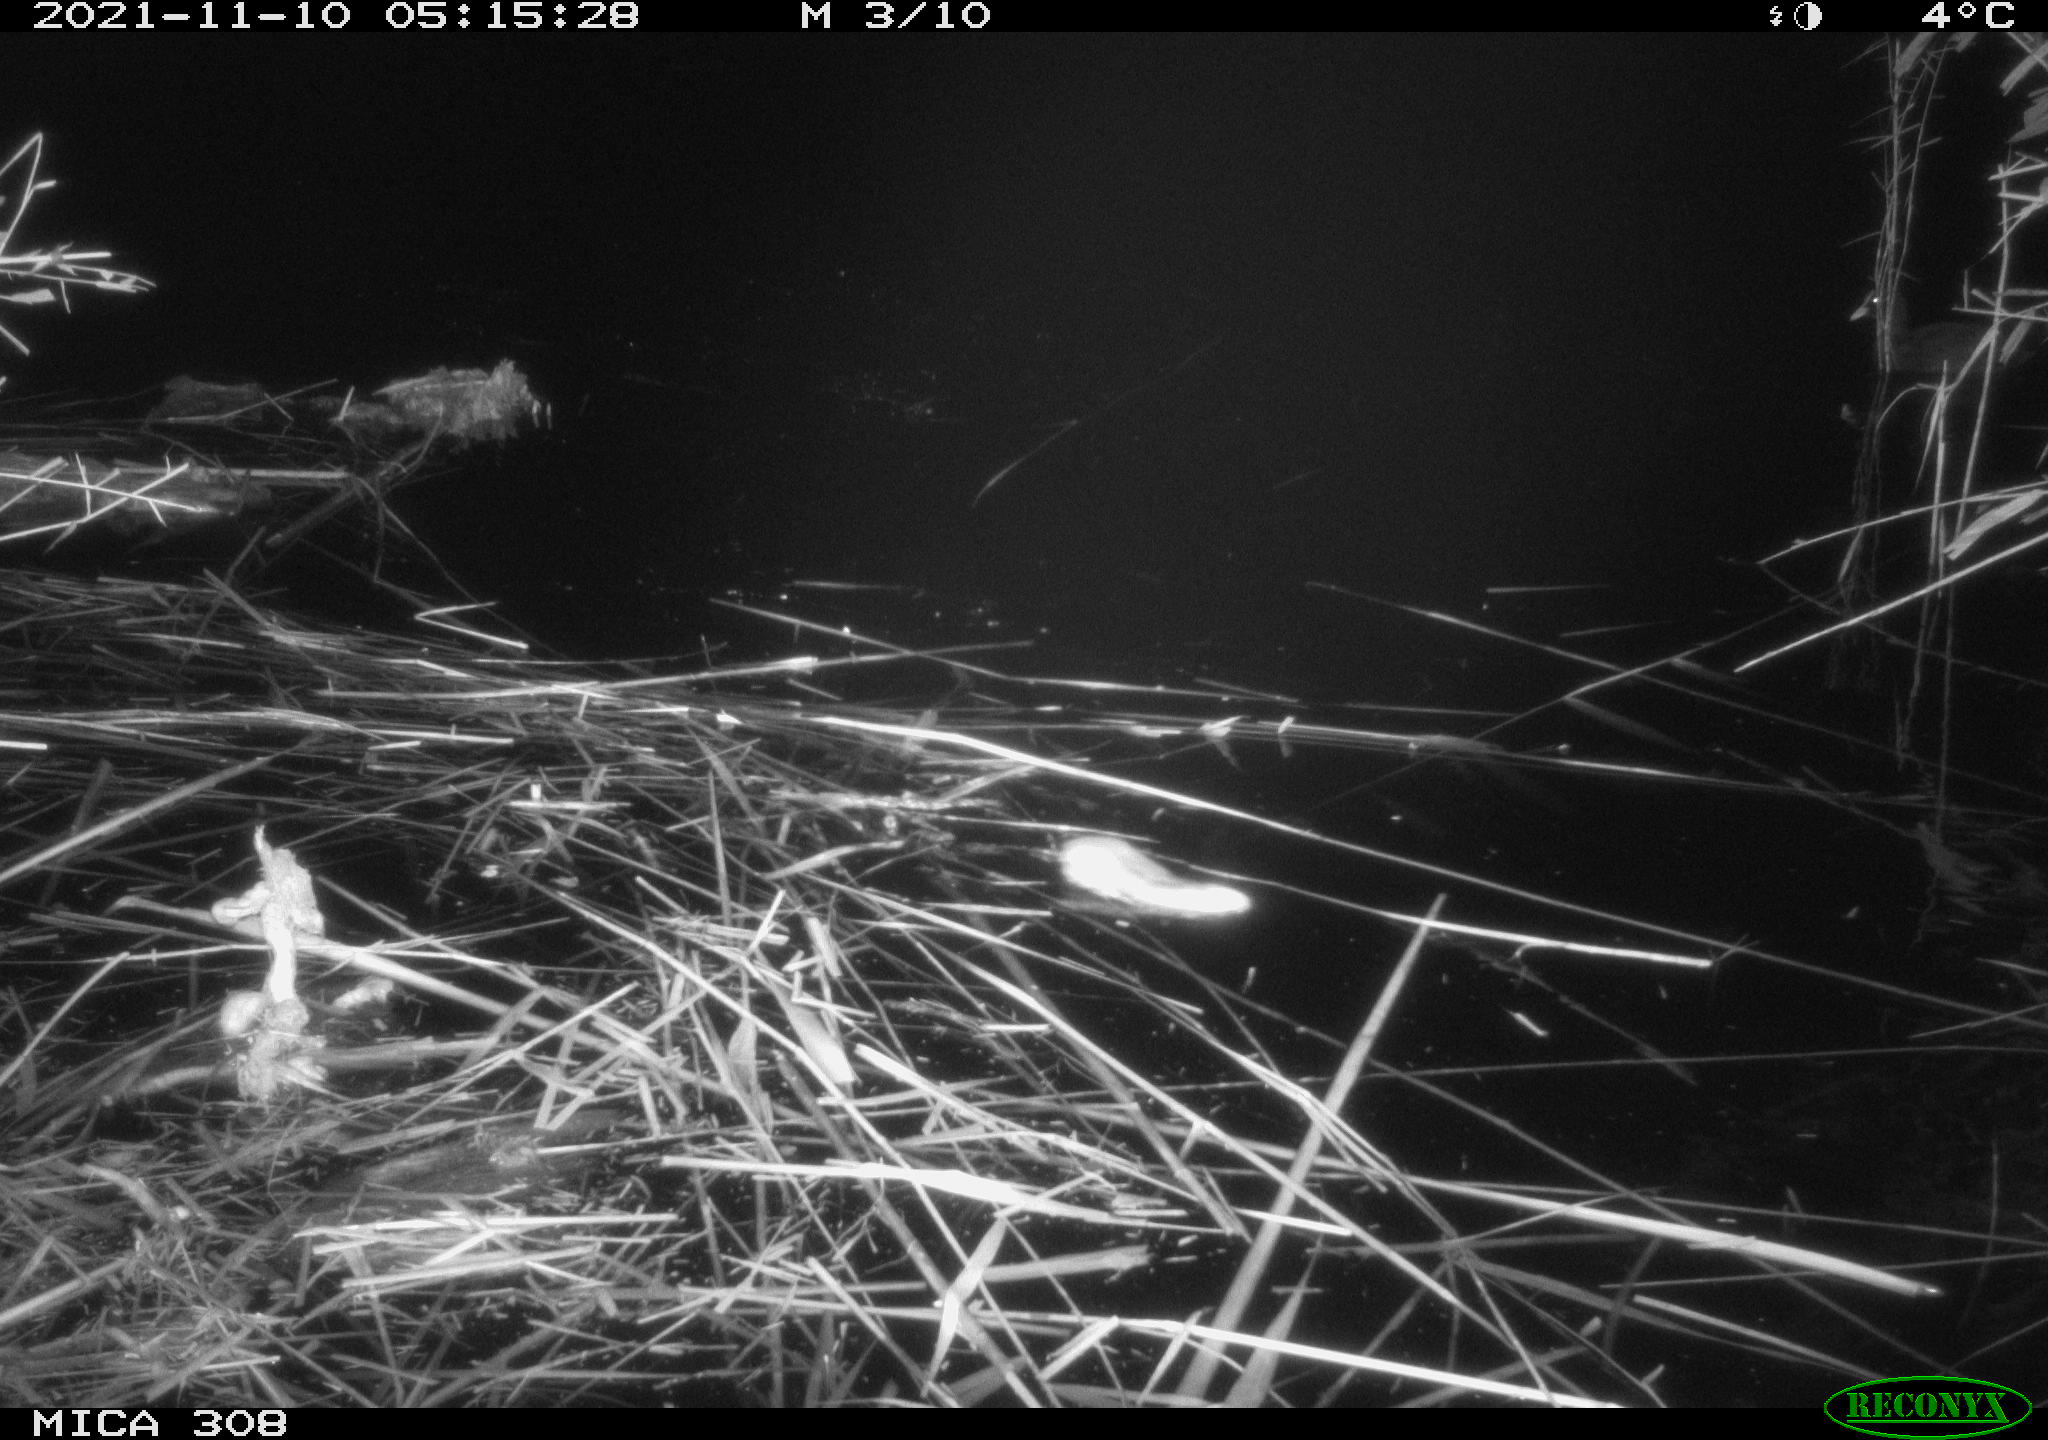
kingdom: Animalia
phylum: Chordata
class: Mammalia
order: Rodentia
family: Muridae
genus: Rattus
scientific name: Rattus norvegicus
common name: Brown rat
